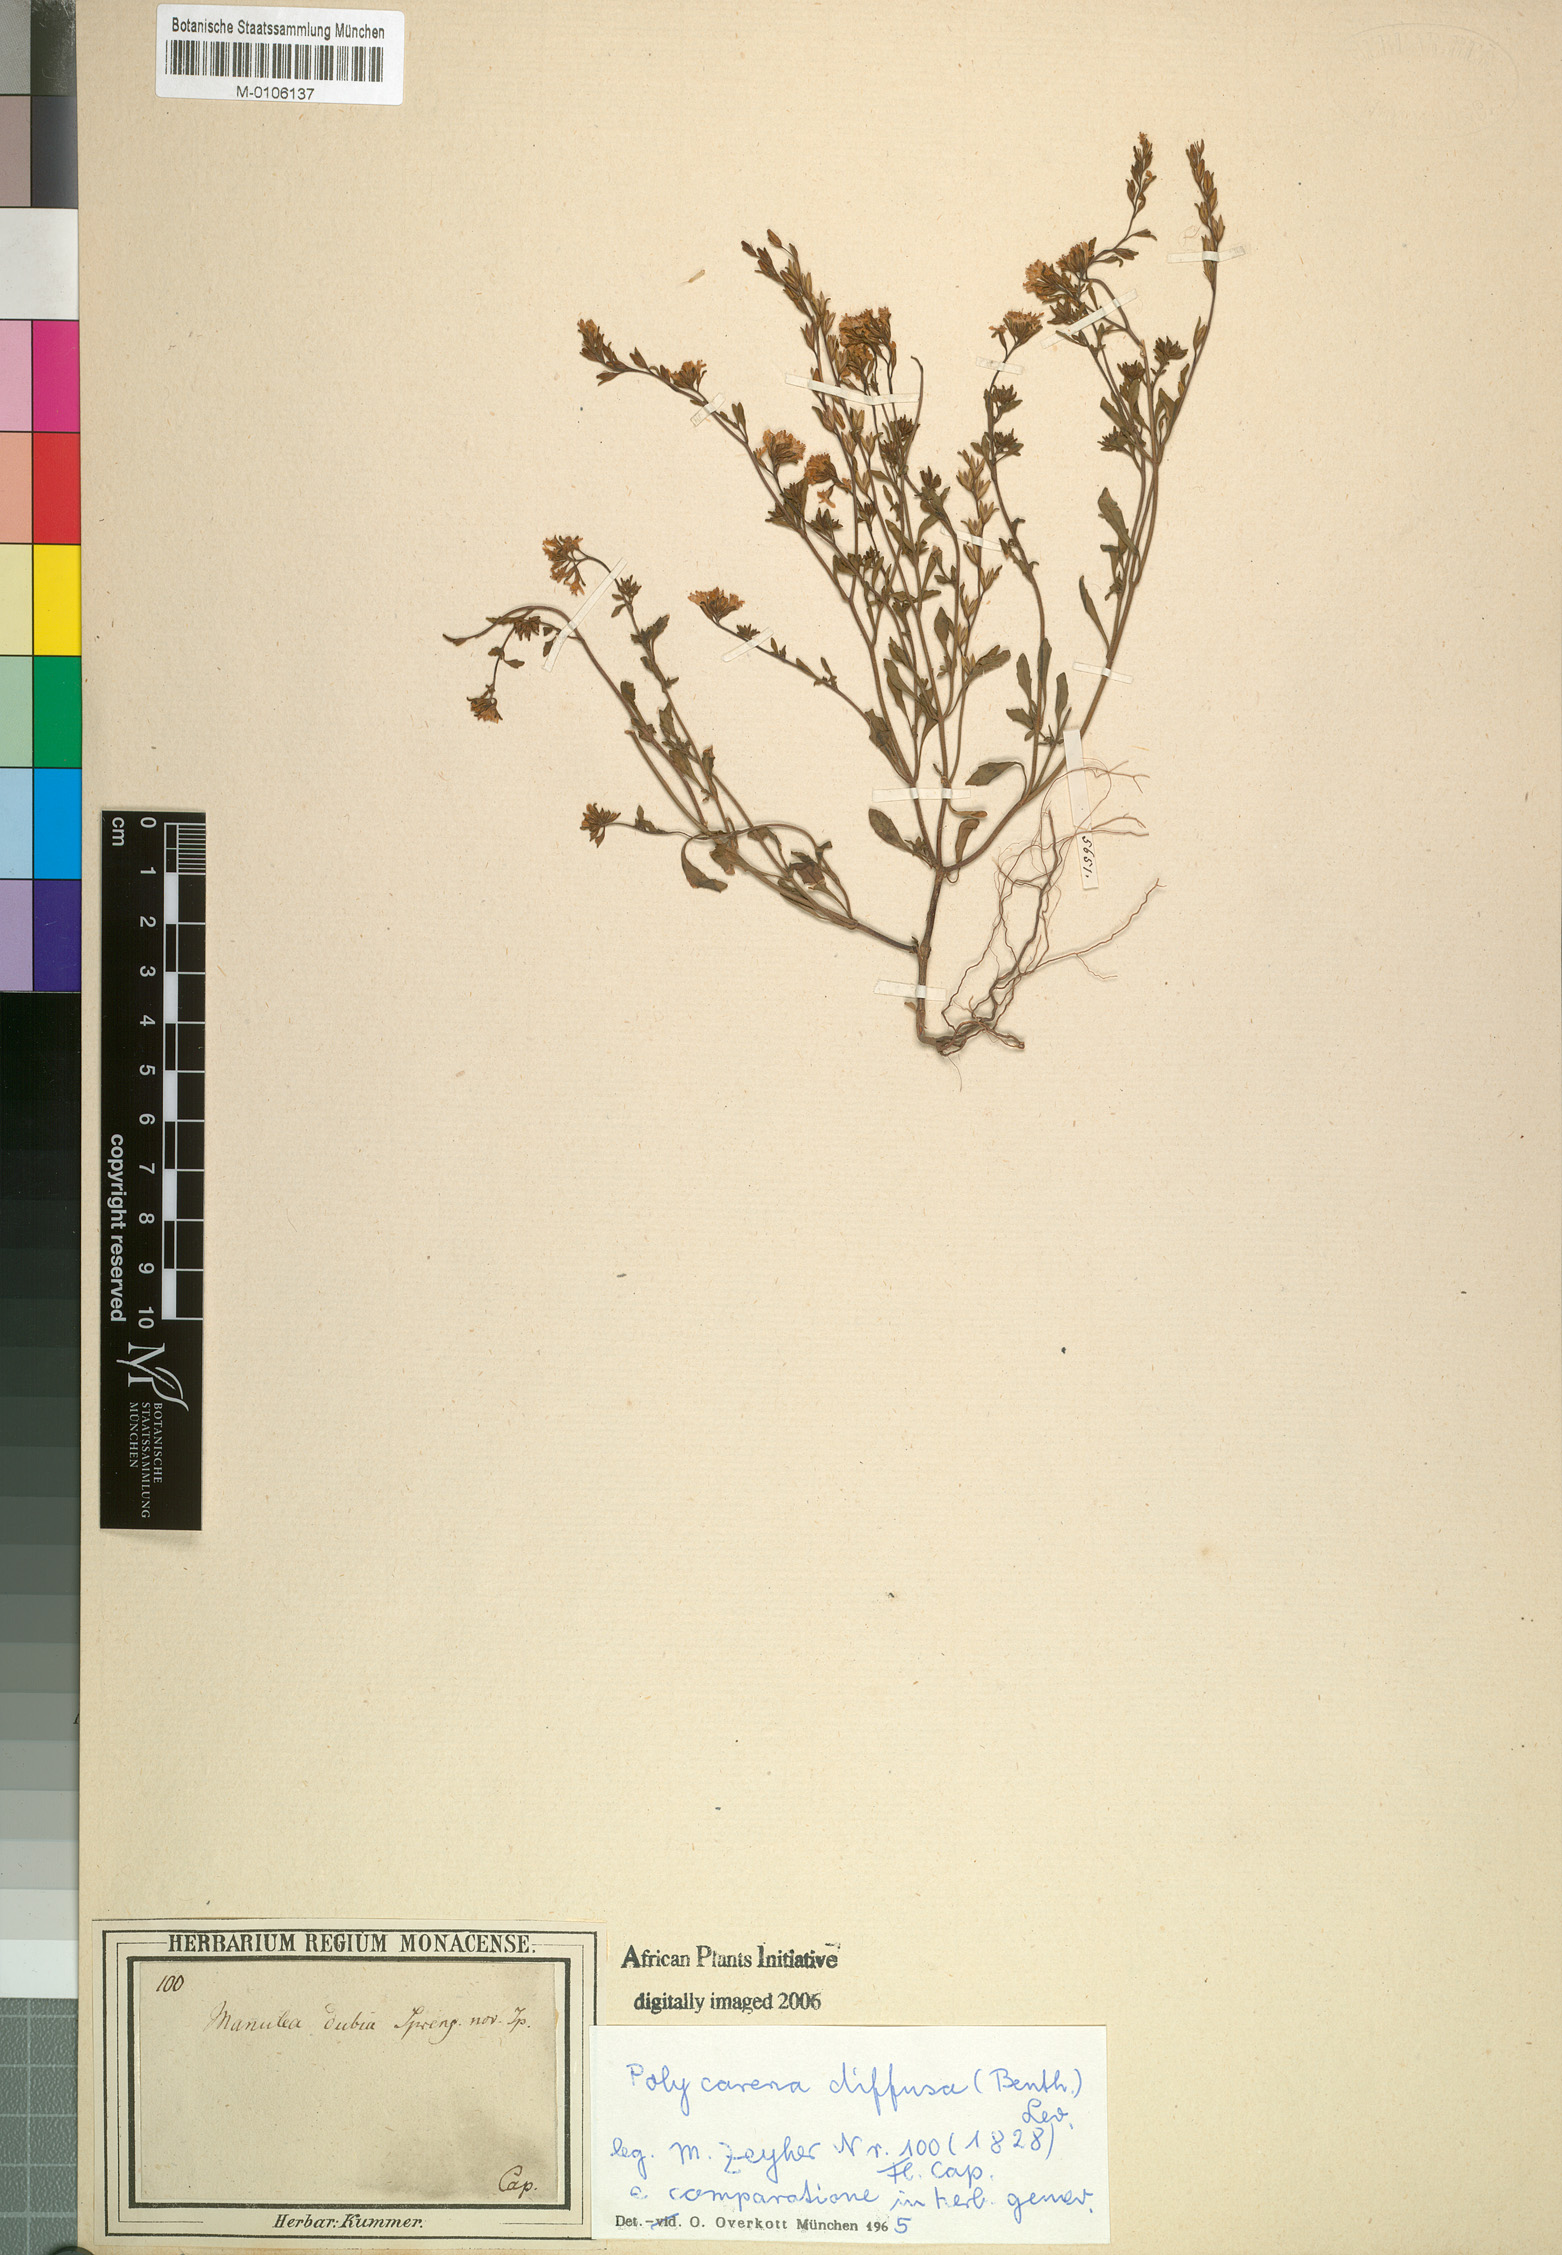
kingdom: Plantae
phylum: Tracheophyta
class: Magnoliopsida
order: Lamiales
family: Scrophulariaceae
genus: Phyllopodium
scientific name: Phyllopodium diffusum
